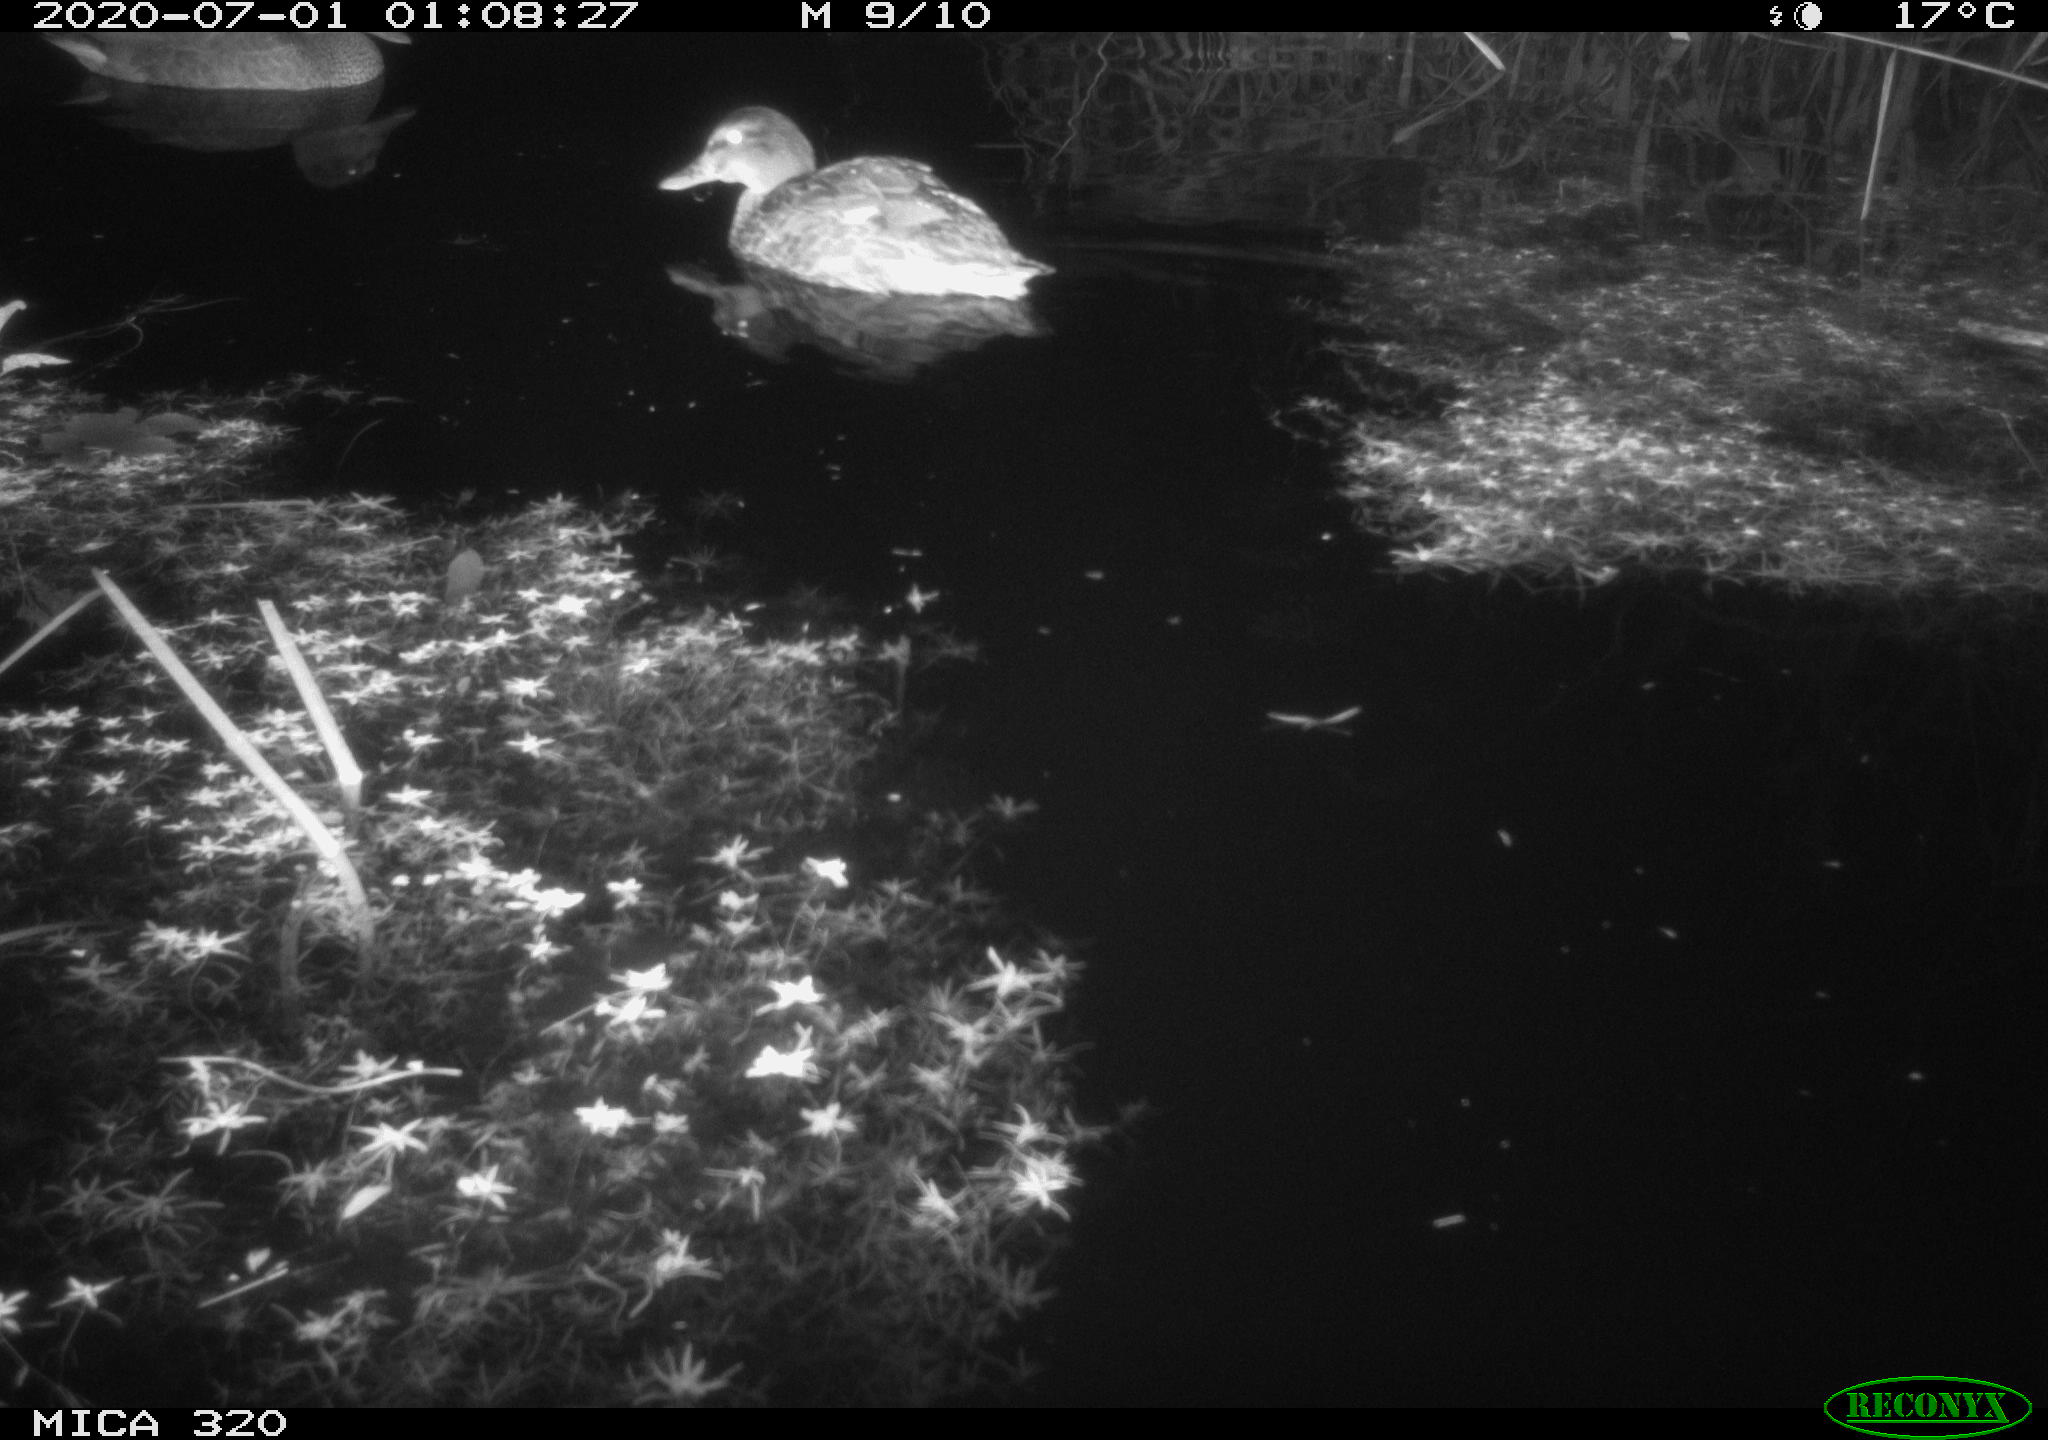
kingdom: Animalia
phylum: Chordata
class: Aves
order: Anseriformes
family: Anatidae
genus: Anas
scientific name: Anas platyrhynchos
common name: Mallard
